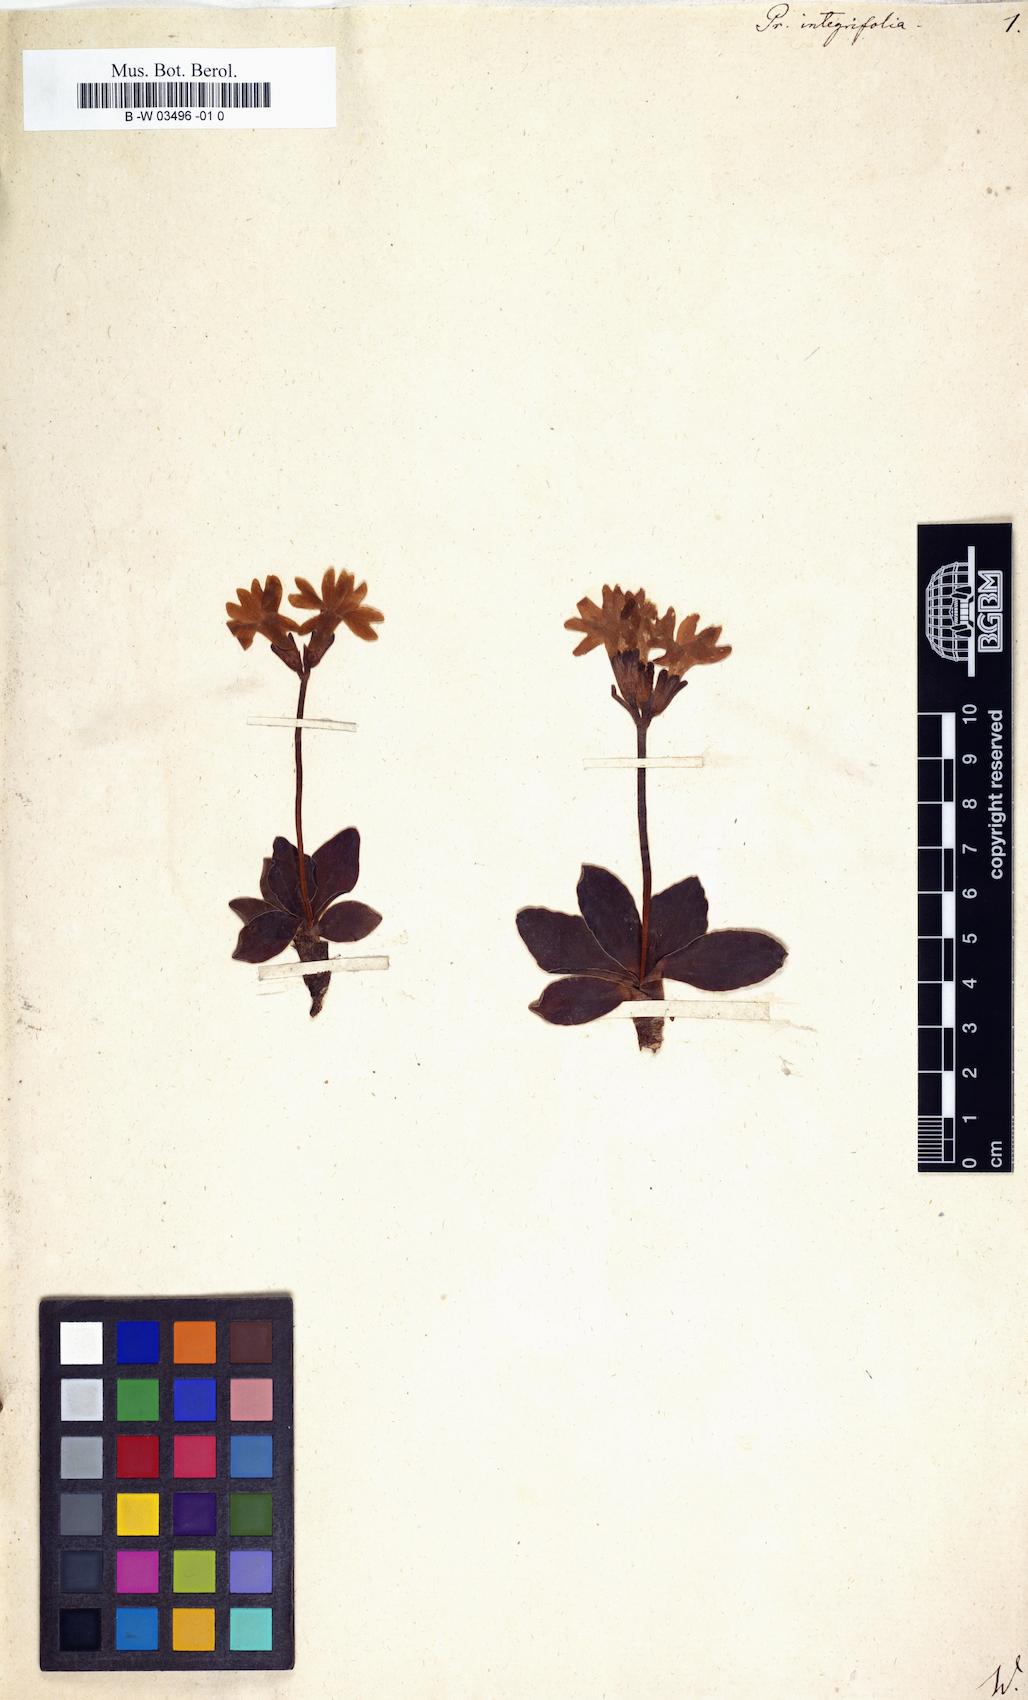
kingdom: Plantae
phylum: Tracheophyta
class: Magnoliopsida
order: Ericales
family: Primulaceae
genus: Primula
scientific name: Primula integrifolia
